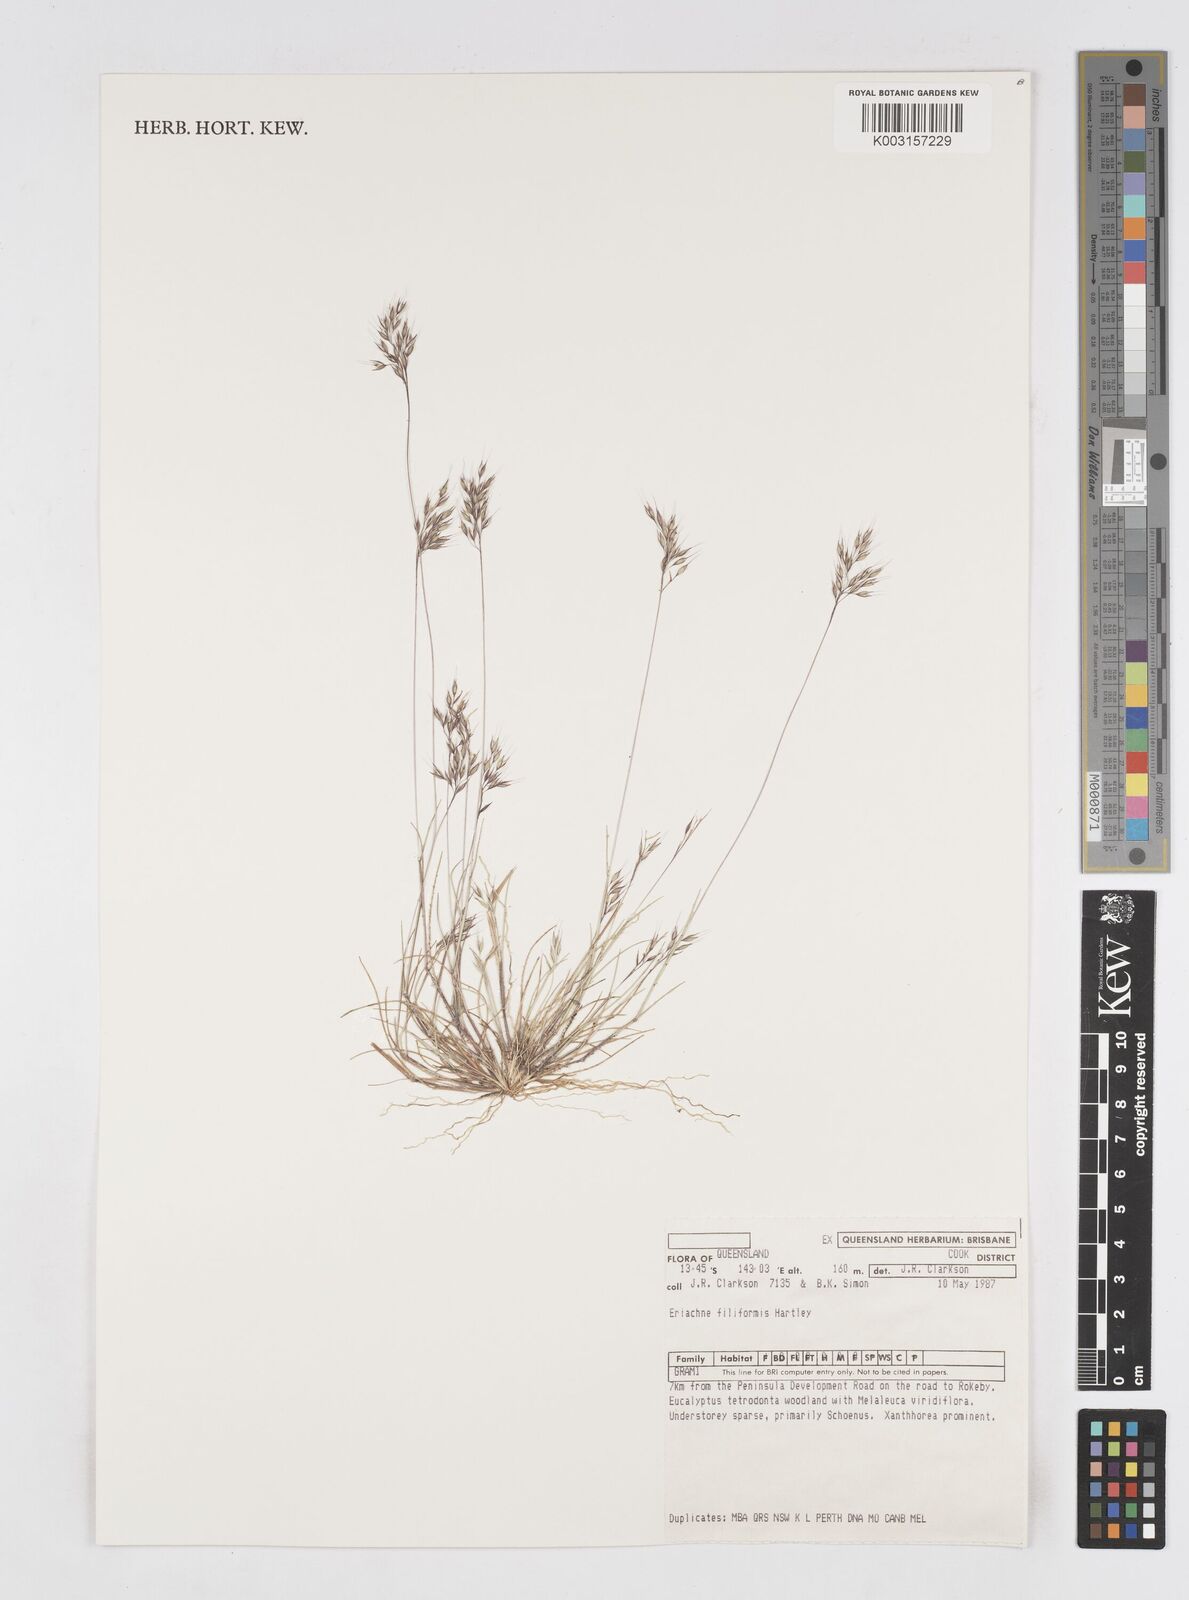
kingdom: Plantae
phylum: Tracheophyta
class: Liliopsida
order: Poales
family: Poaceae
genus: Eriachne
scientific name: Eriachne filiformis
